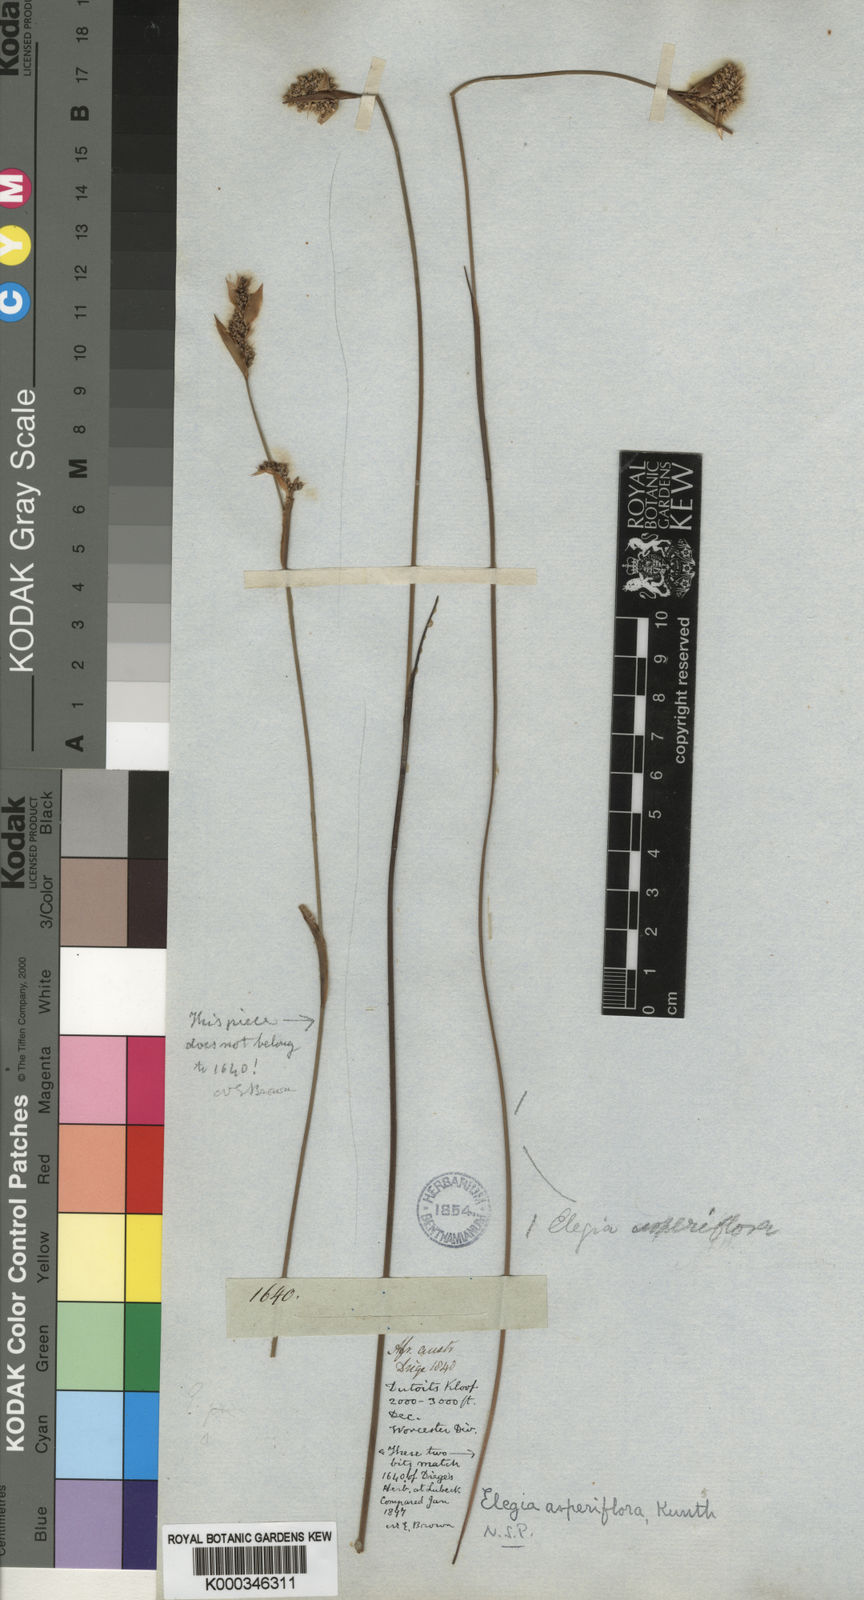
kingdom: Plantae
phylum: Tracheophyta
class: Liliopsida
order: Poales
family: Restionaceae
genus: Elegia
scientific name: Elegia asperiflora
